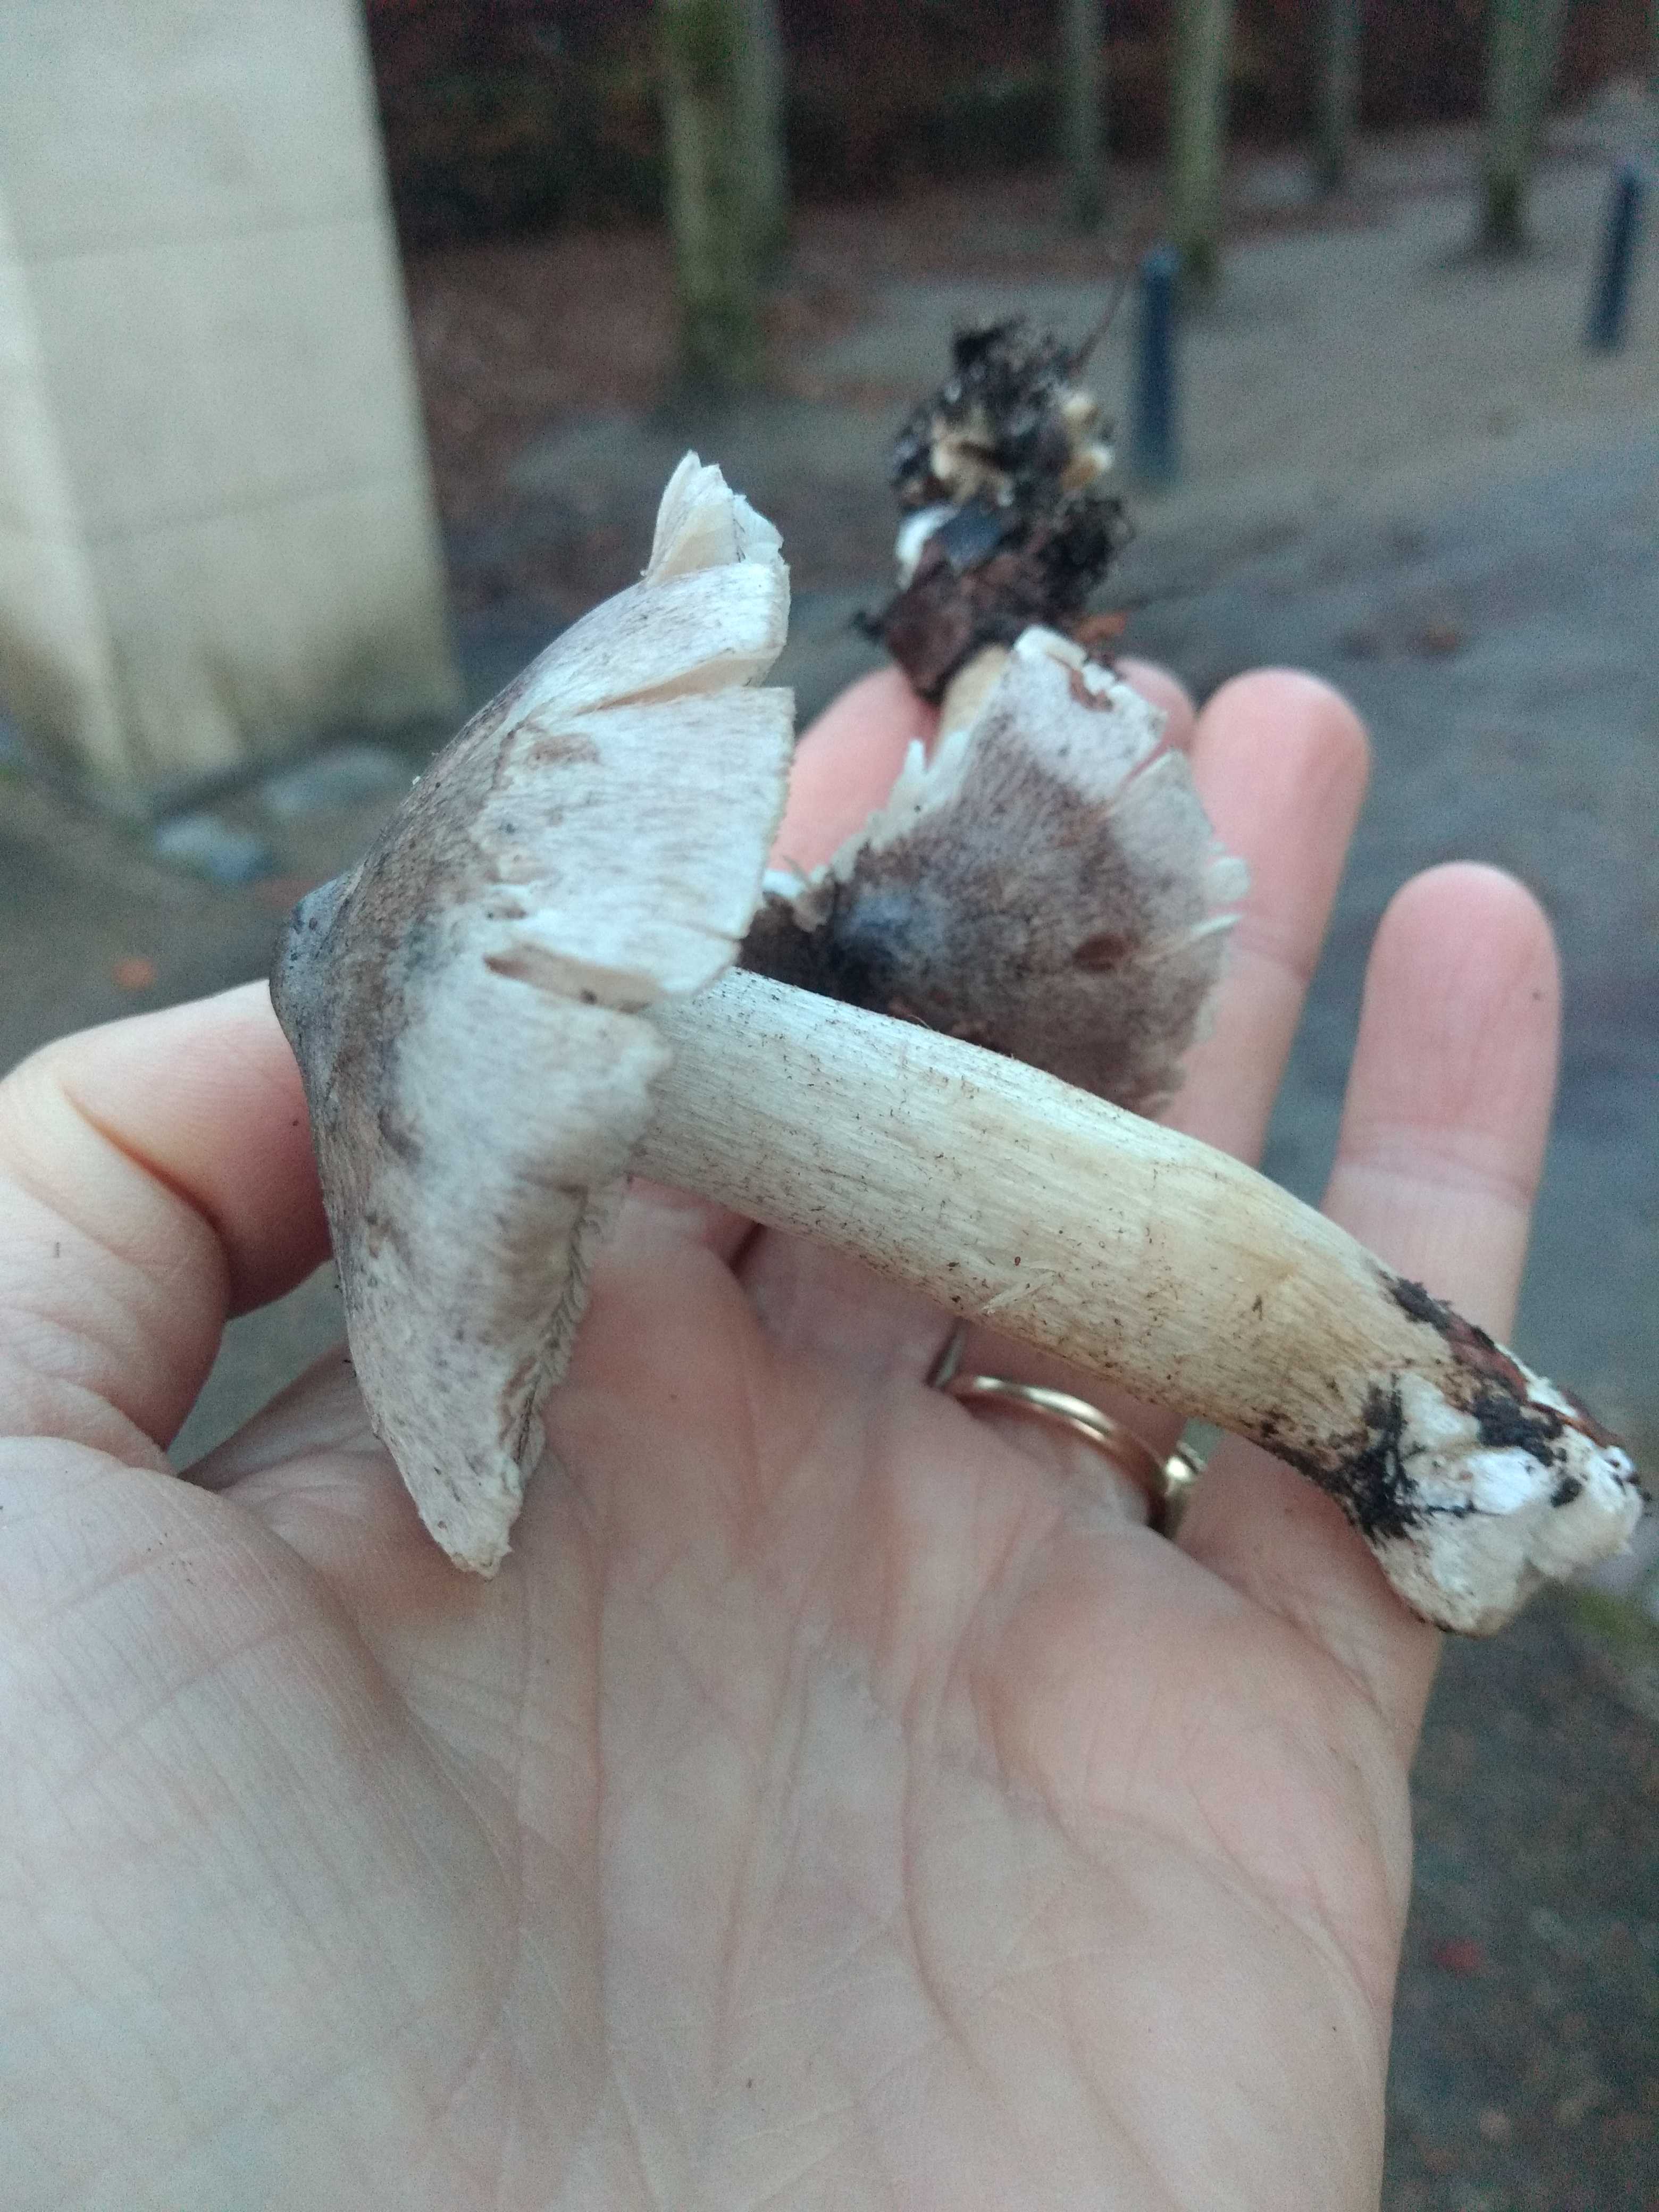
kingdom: Fungi
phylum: Basidiomycota
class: Agaricomycetes
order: Agaricales
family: Tricholomataceae
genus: Tricholoma
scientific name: Tricholoma sciodes
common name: stribet ridderhat
